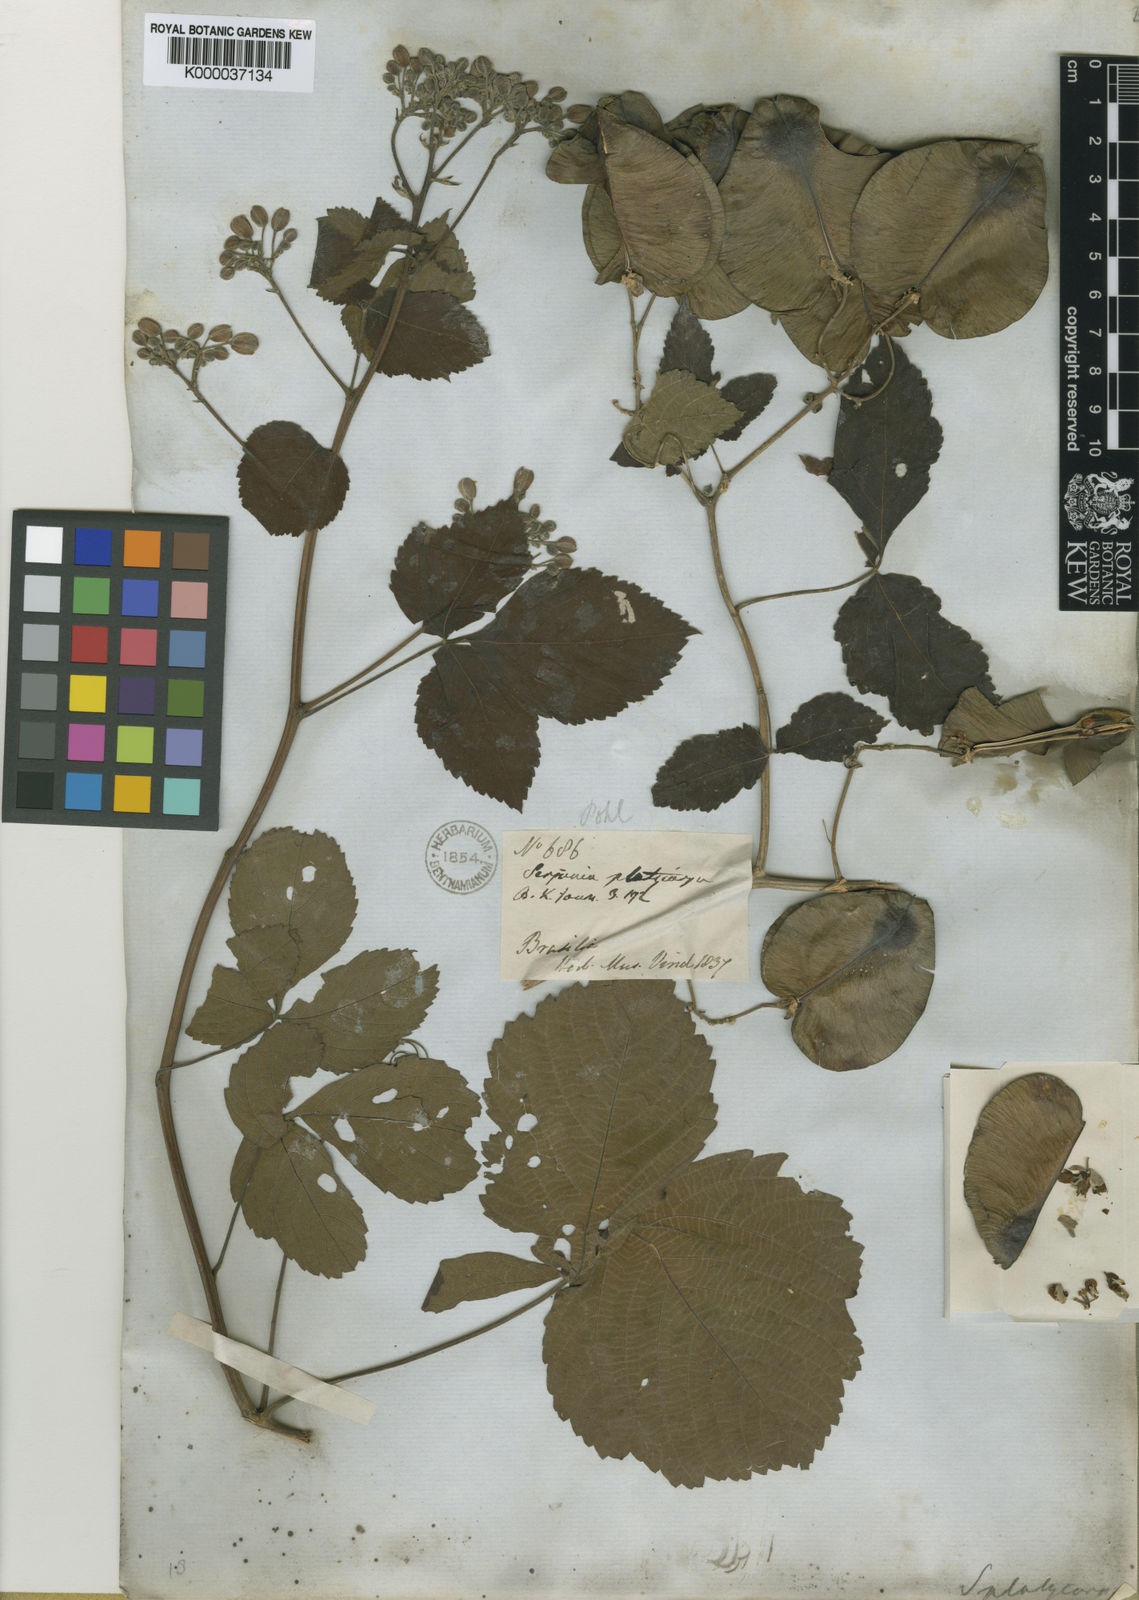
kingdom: Plantae
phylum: Tracheophyta
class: Magnoliopsida
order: Sapindales
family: Sapindaceae
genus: Serjania
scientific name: Serjania platycarpa
